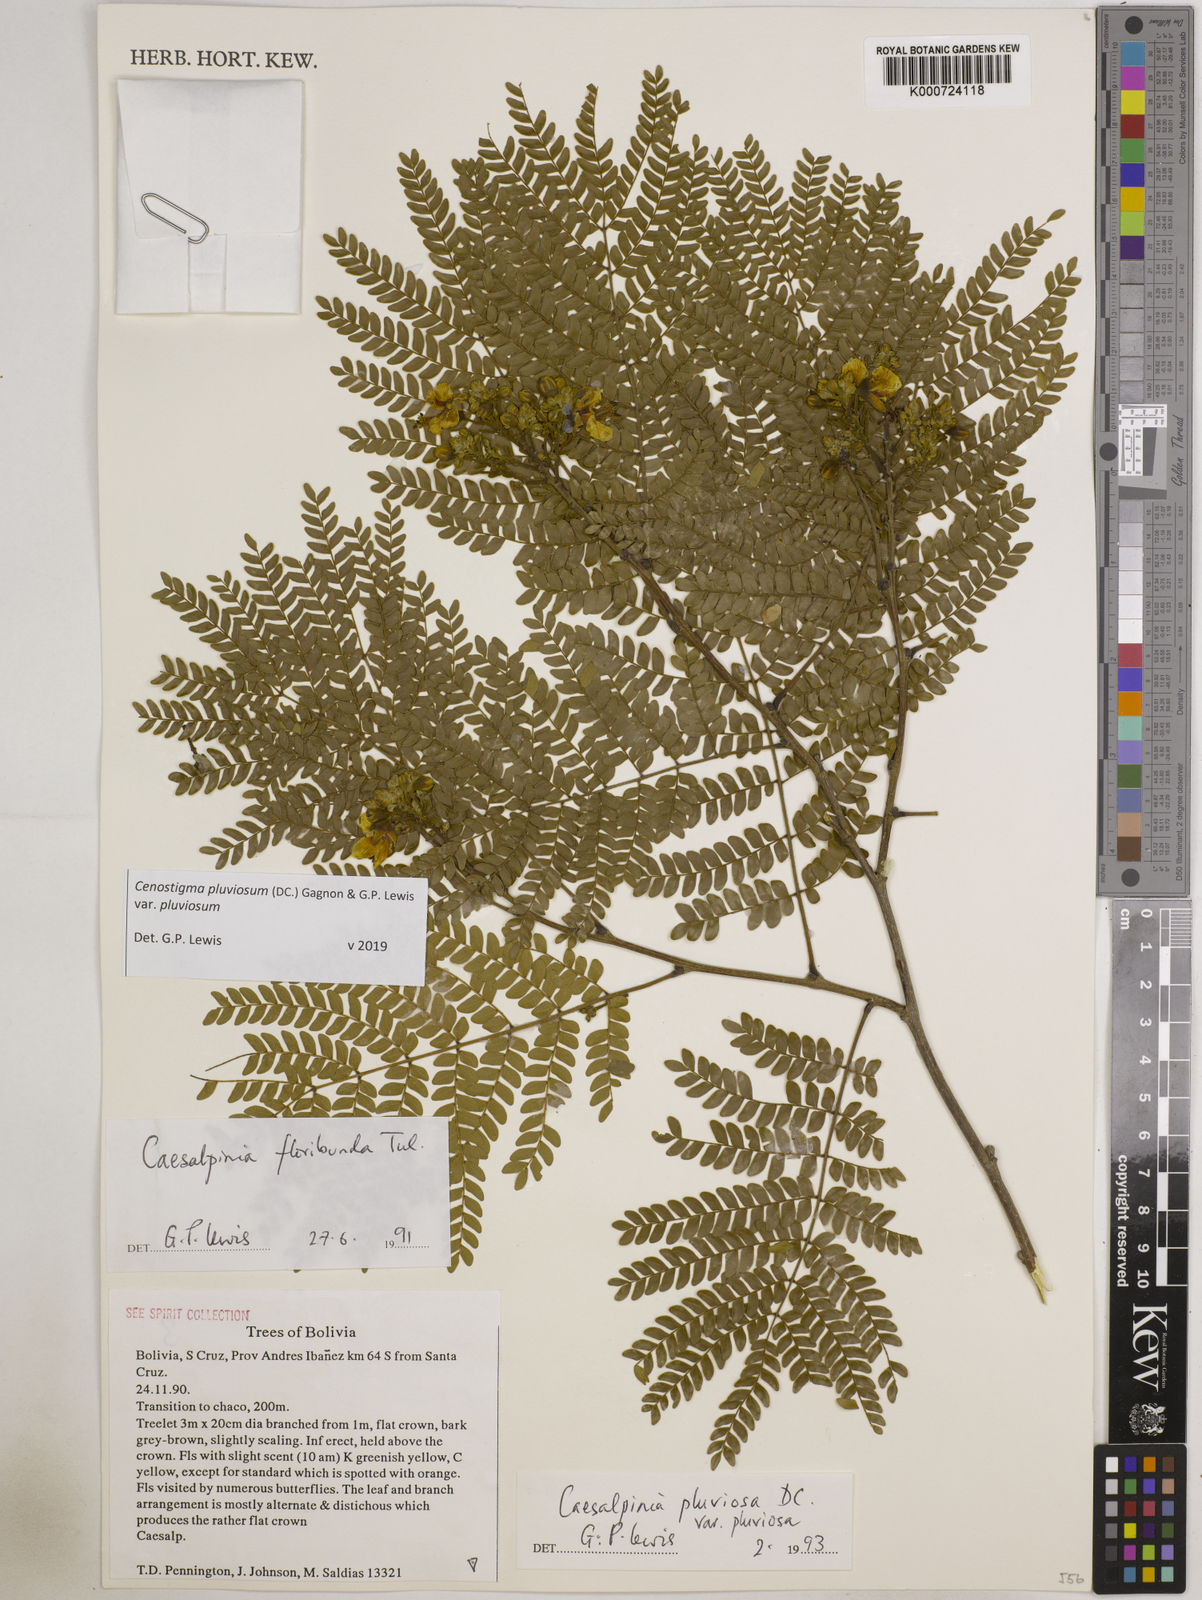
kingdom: Plantae
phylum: Tracheophyta
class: Magnoliopsida
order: Fabales
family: Fabaceae
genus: Cenostigma
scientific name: Cenostigma pluviosum
